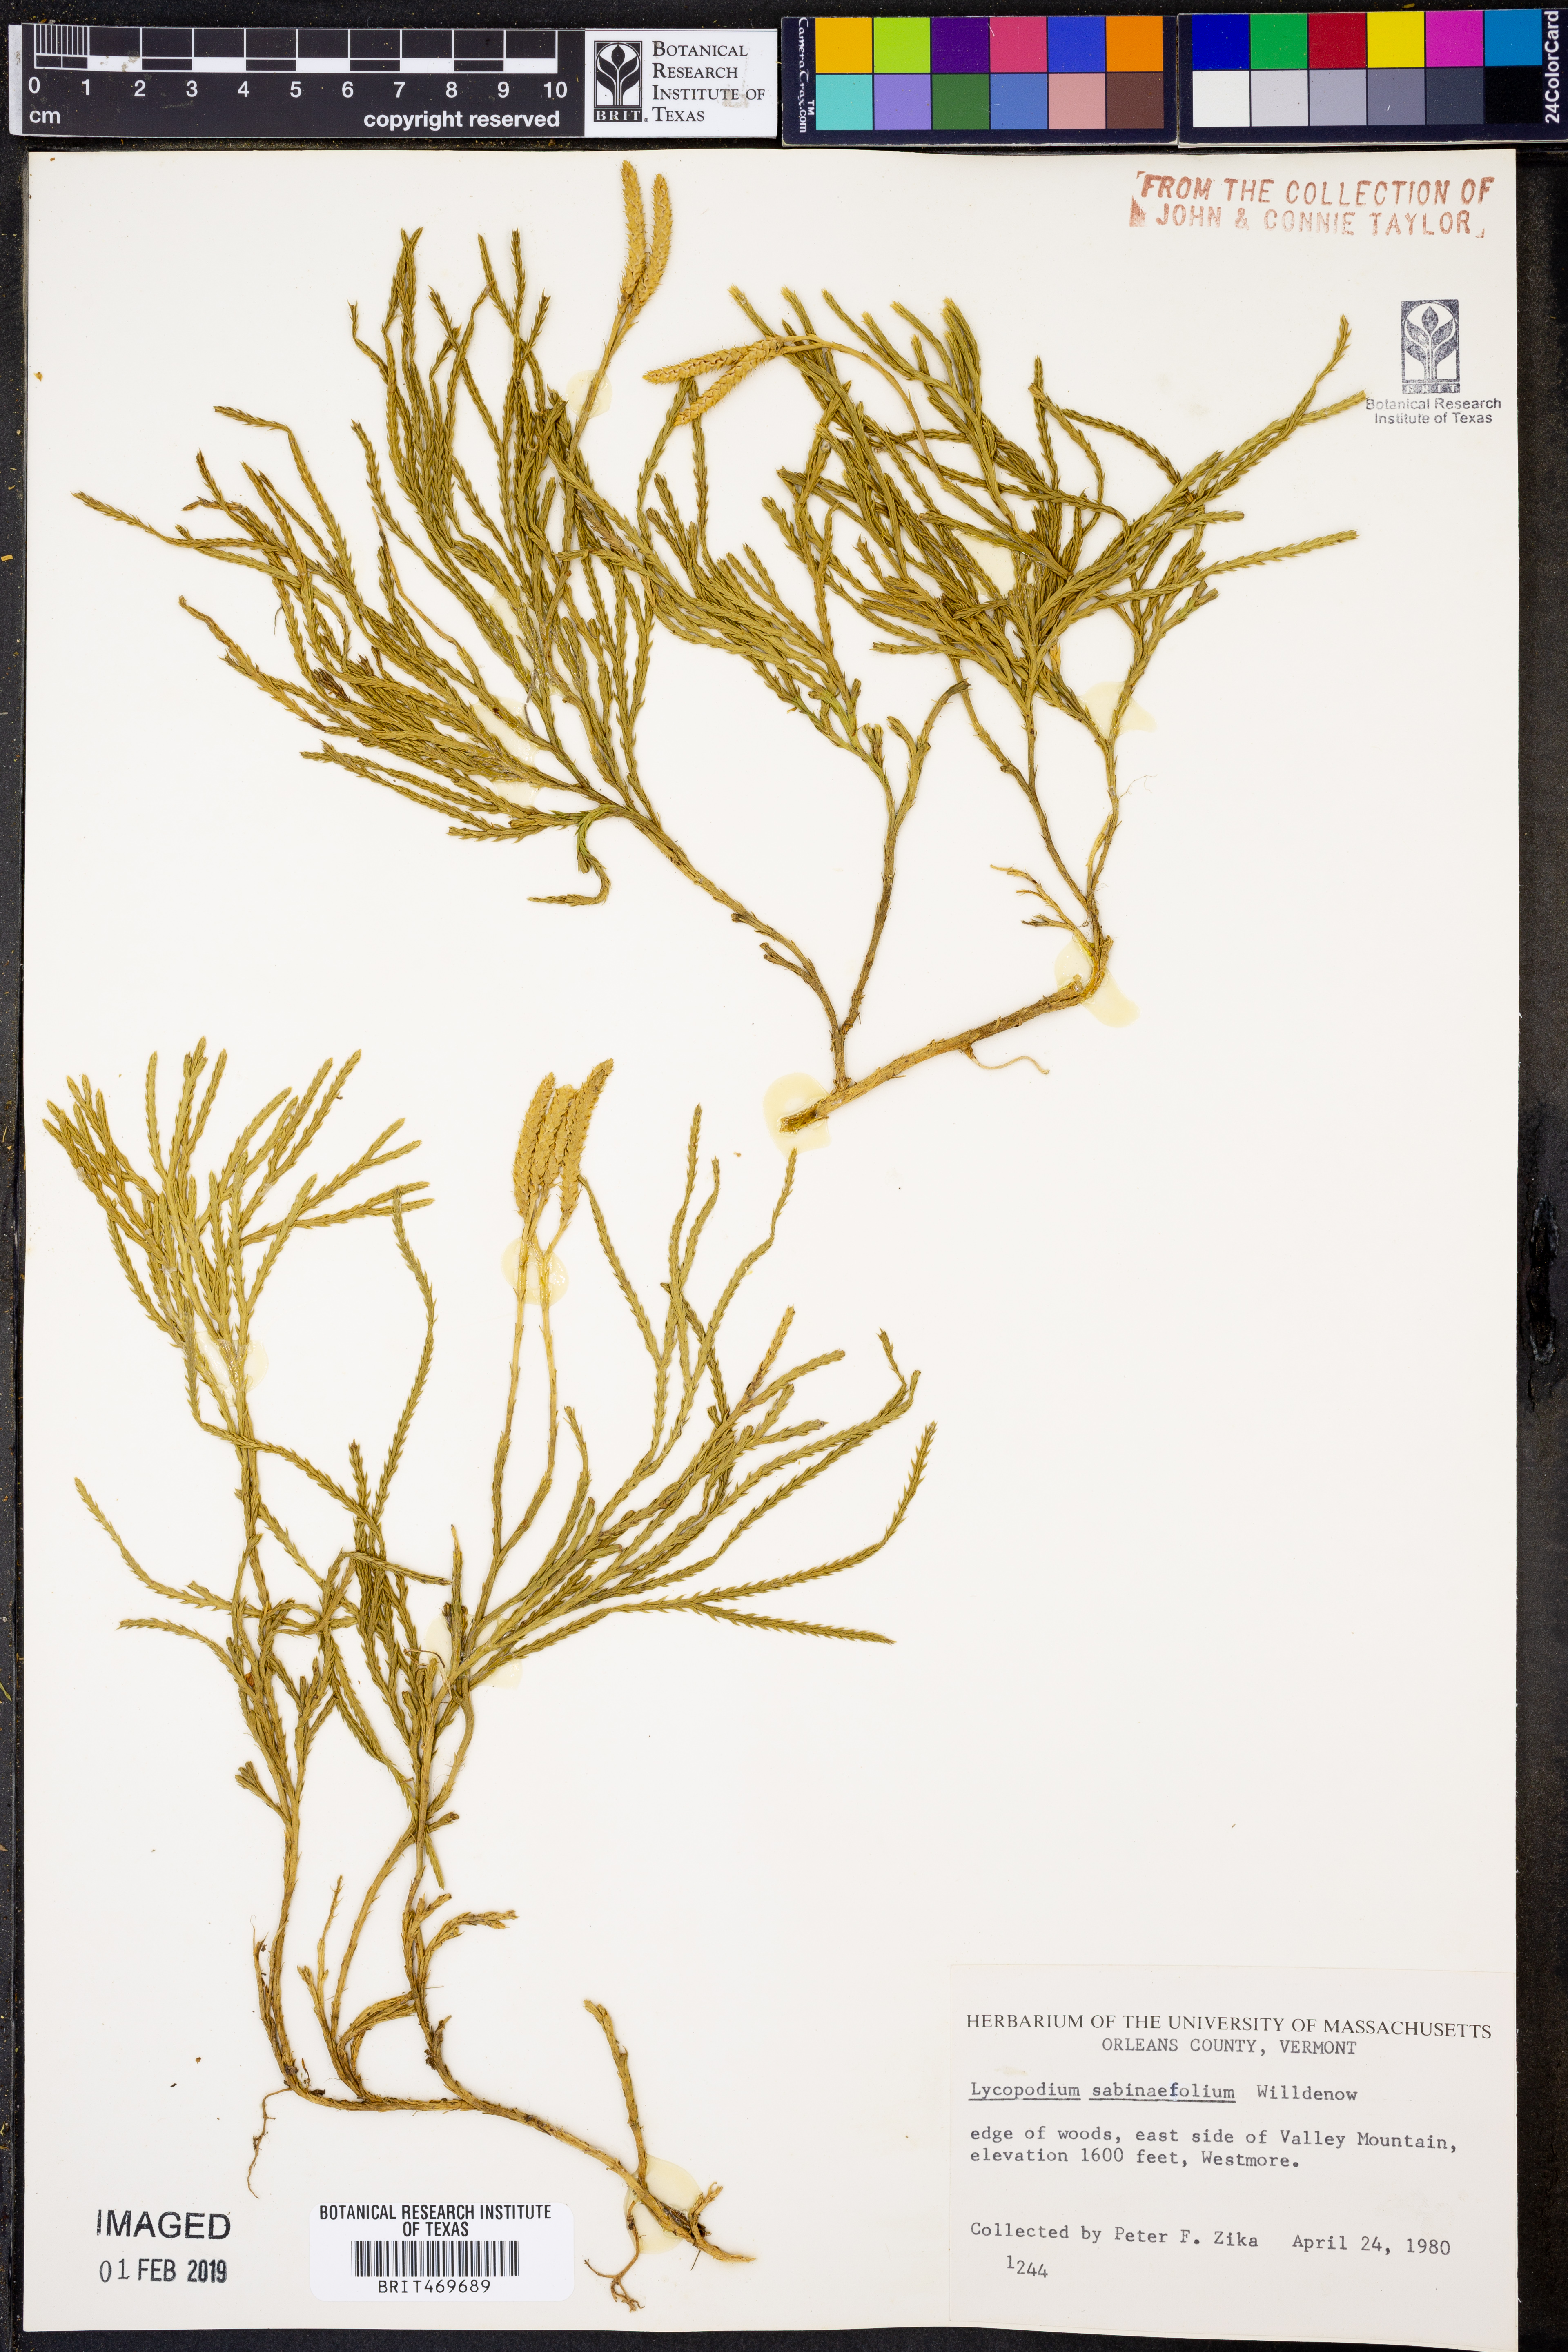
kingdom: Plantae
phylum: Tracheophyta
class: Lycopodiopsida
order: Lycopodiales
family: Lycopodiaceae
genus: Lycopodium
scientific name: Lycopodium sabinaefolium
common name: Savinleaf groundpine
